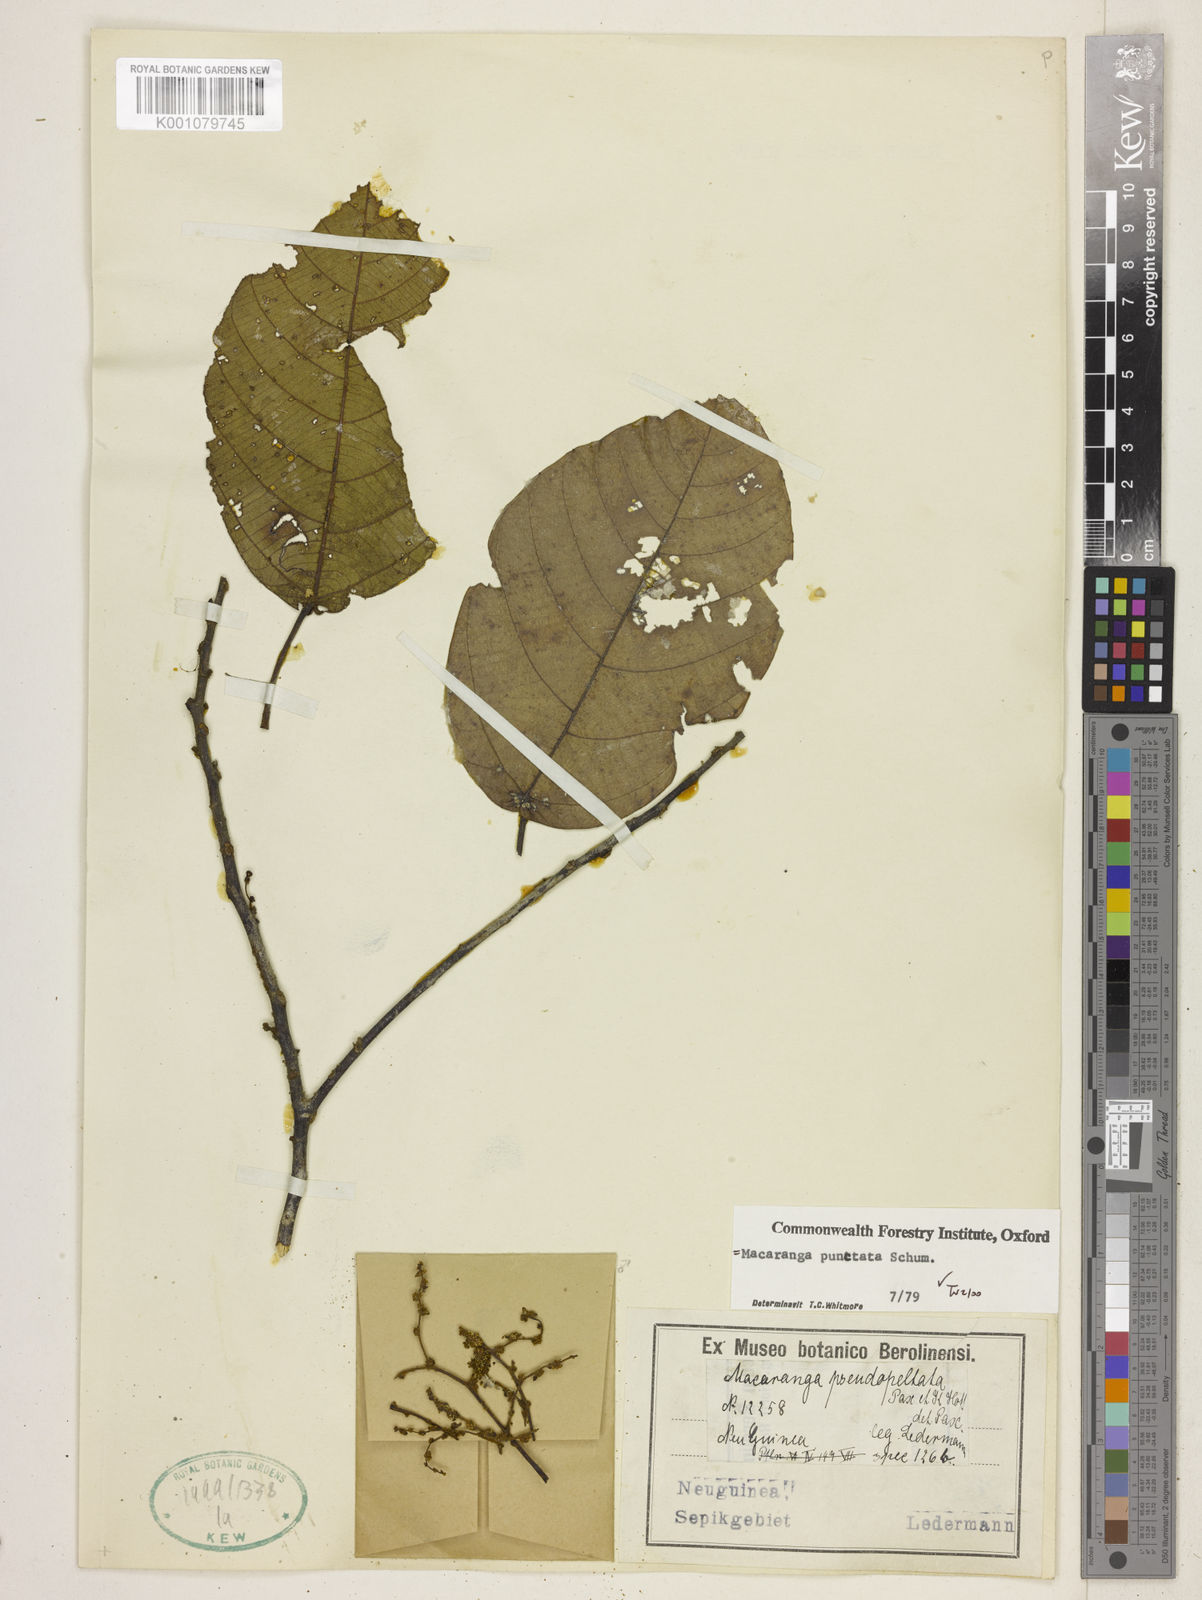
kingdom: Plantae
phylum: Tracheophyta
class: Magnoliopsida
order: Malpighiales
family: Euphorbiaceae
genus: Macaranga
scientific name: Macaranga punctata
